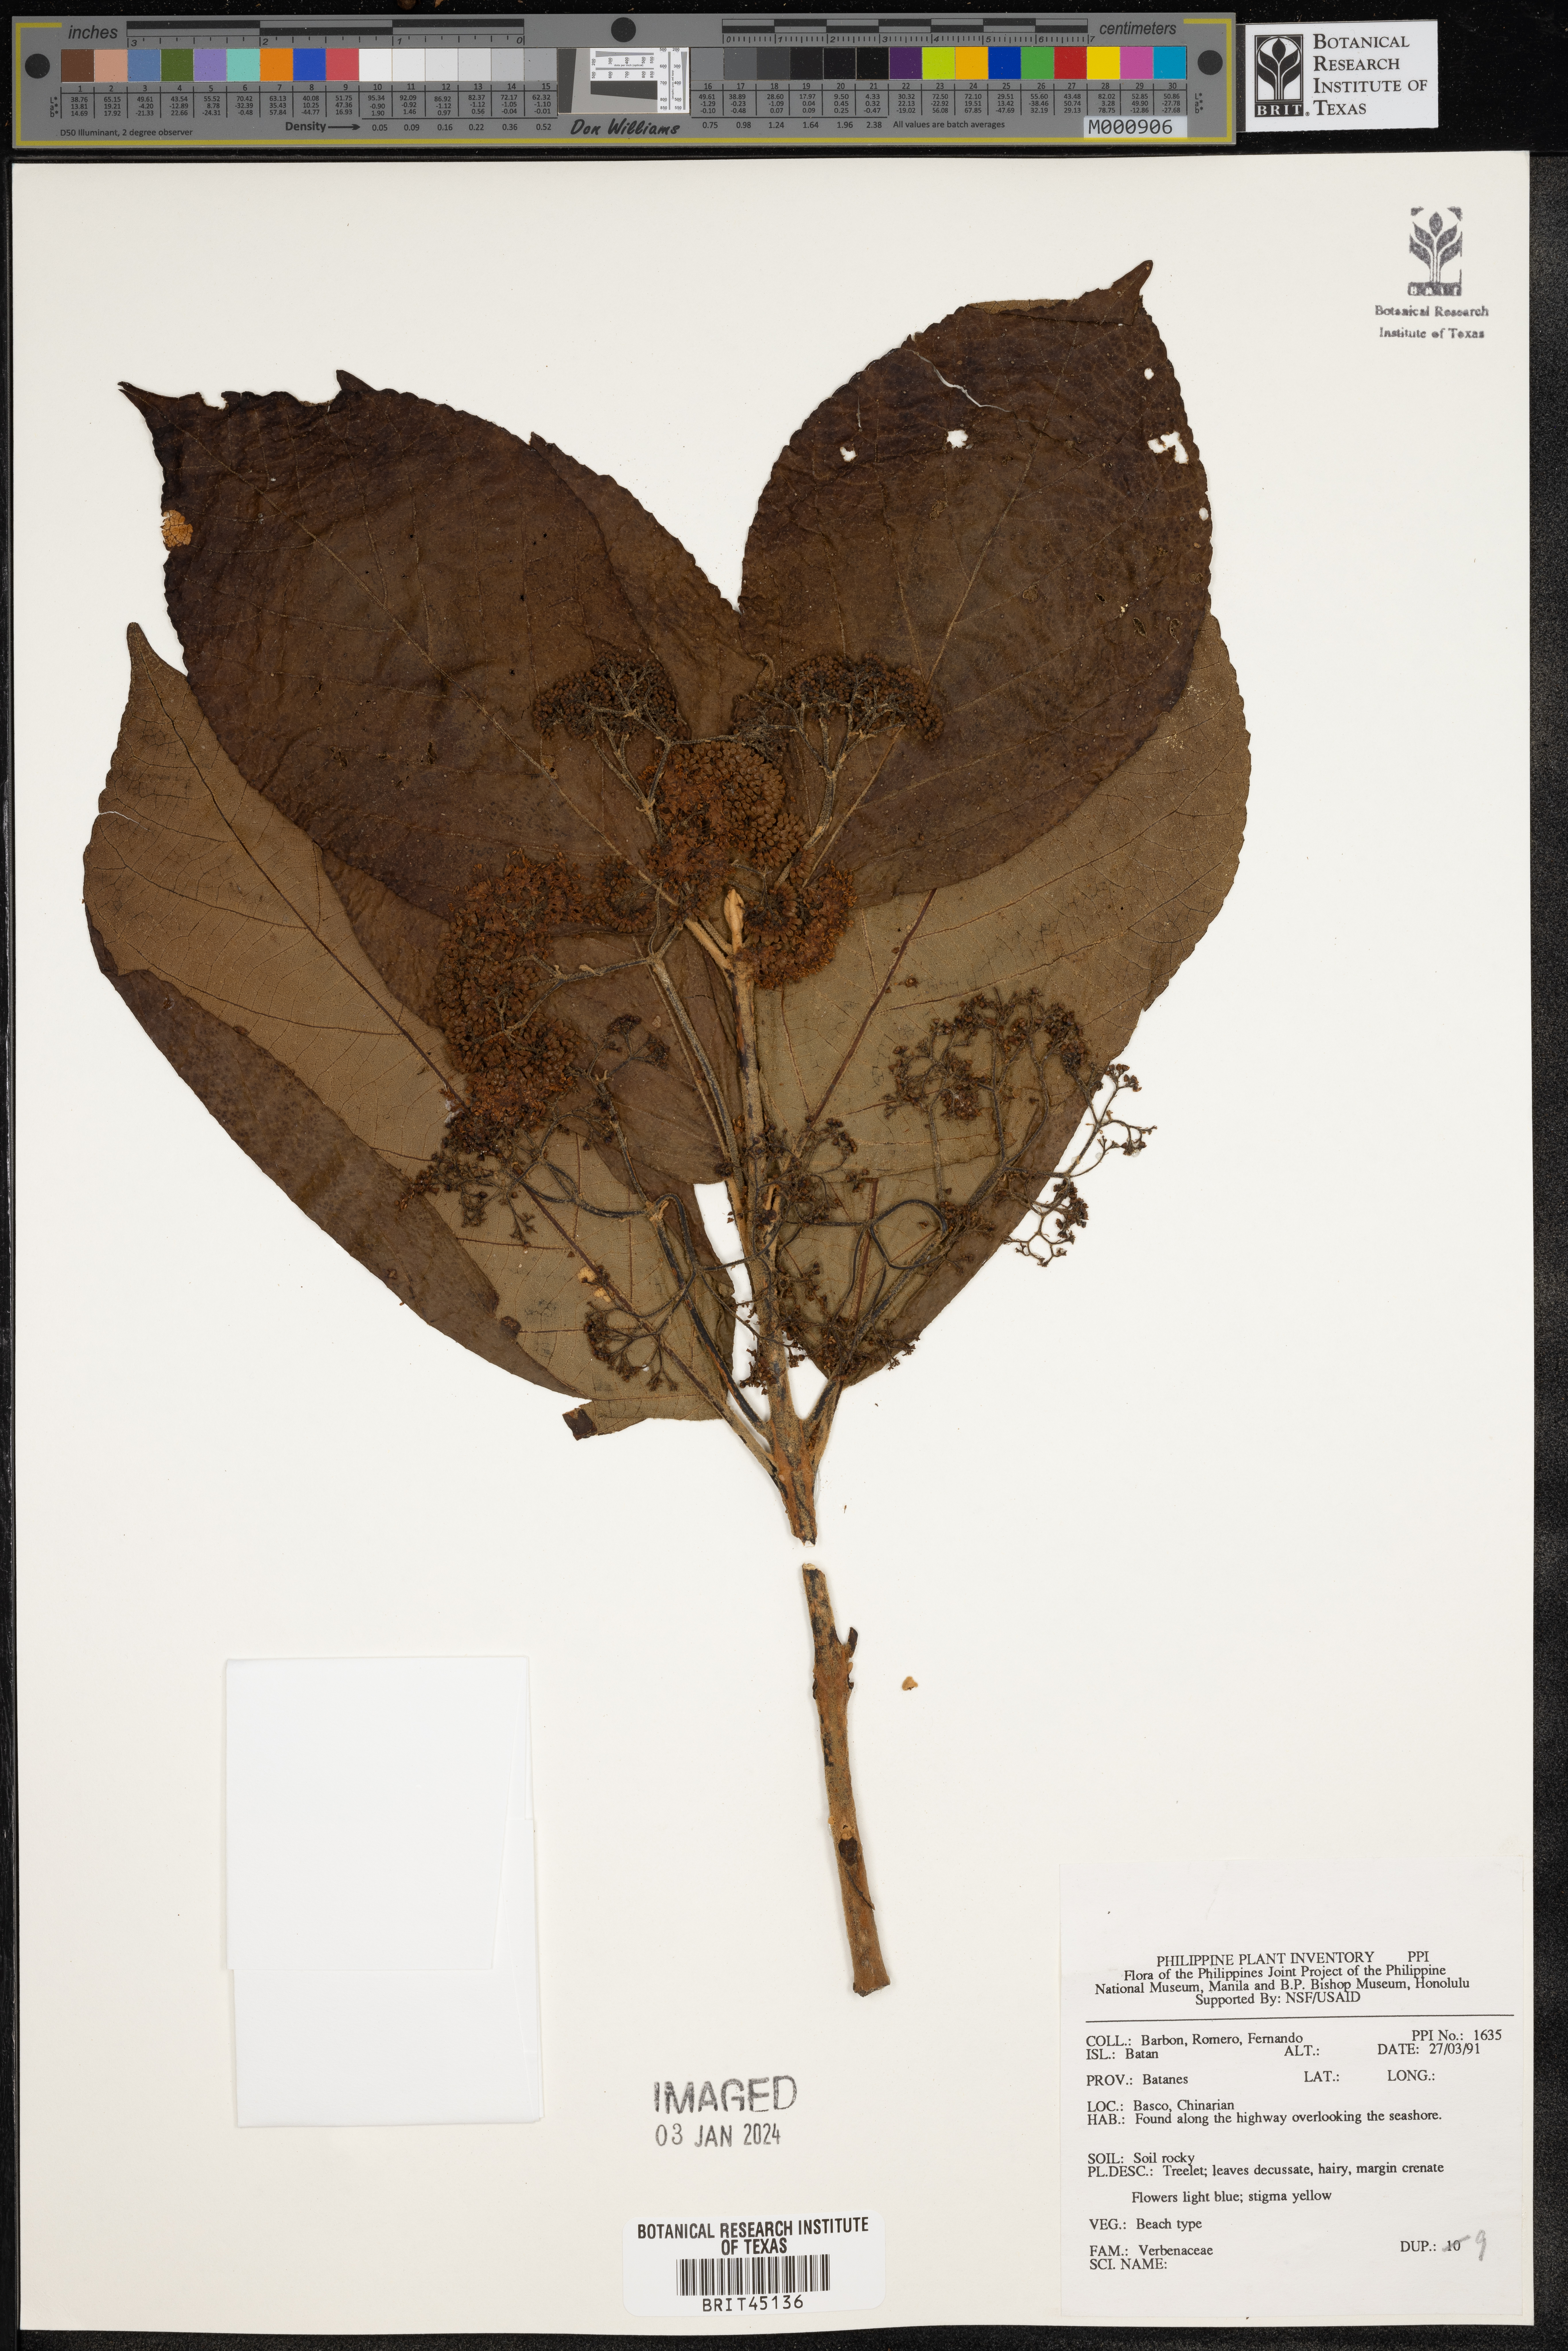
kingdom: Plantae
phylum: Tracheophyta
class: Magnoliopsida
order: Lamiales
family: Verbenaceae
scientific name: Verbenaceae
